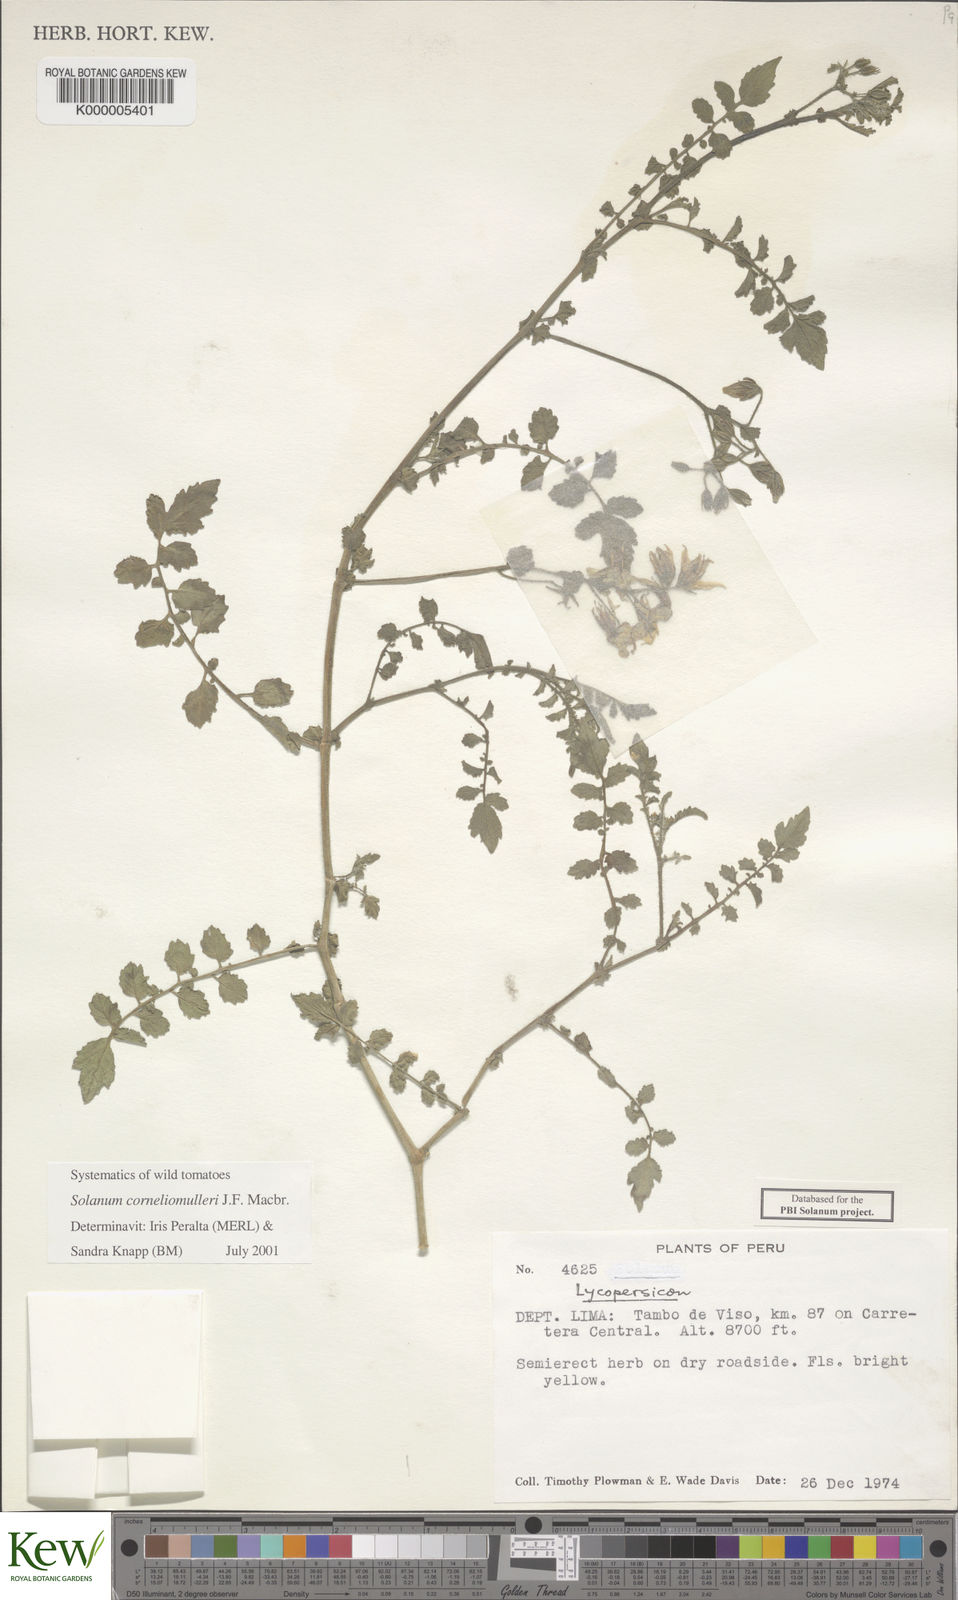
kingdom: Plantae
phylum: Tracheophyta
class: Magnoliopsida
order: Solanales
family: Solanaceae
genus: Solanum
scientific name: Solanum corneliomulleri
